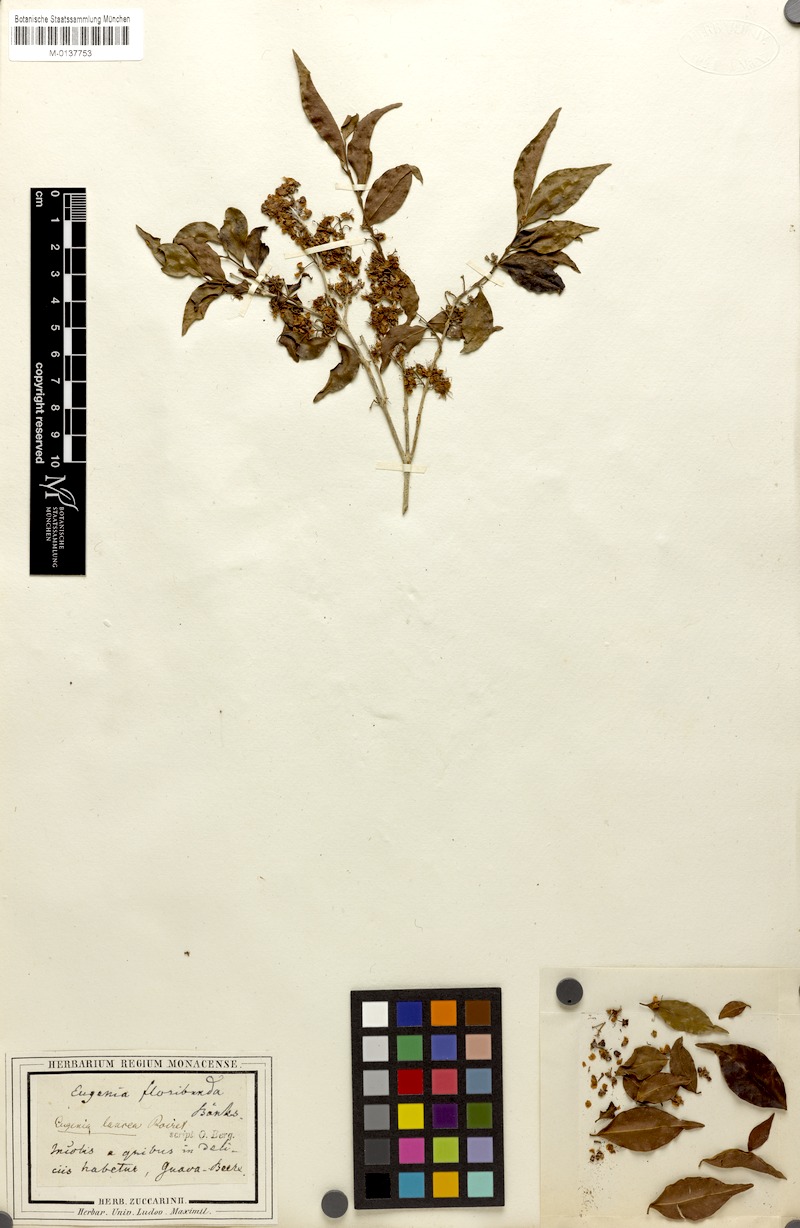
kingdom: Plantae
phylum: Tracheophyta
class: Magnoliopsida
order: Myrtales
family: Myrtaceae
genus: Eugenia
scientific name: Eugenia biflora
